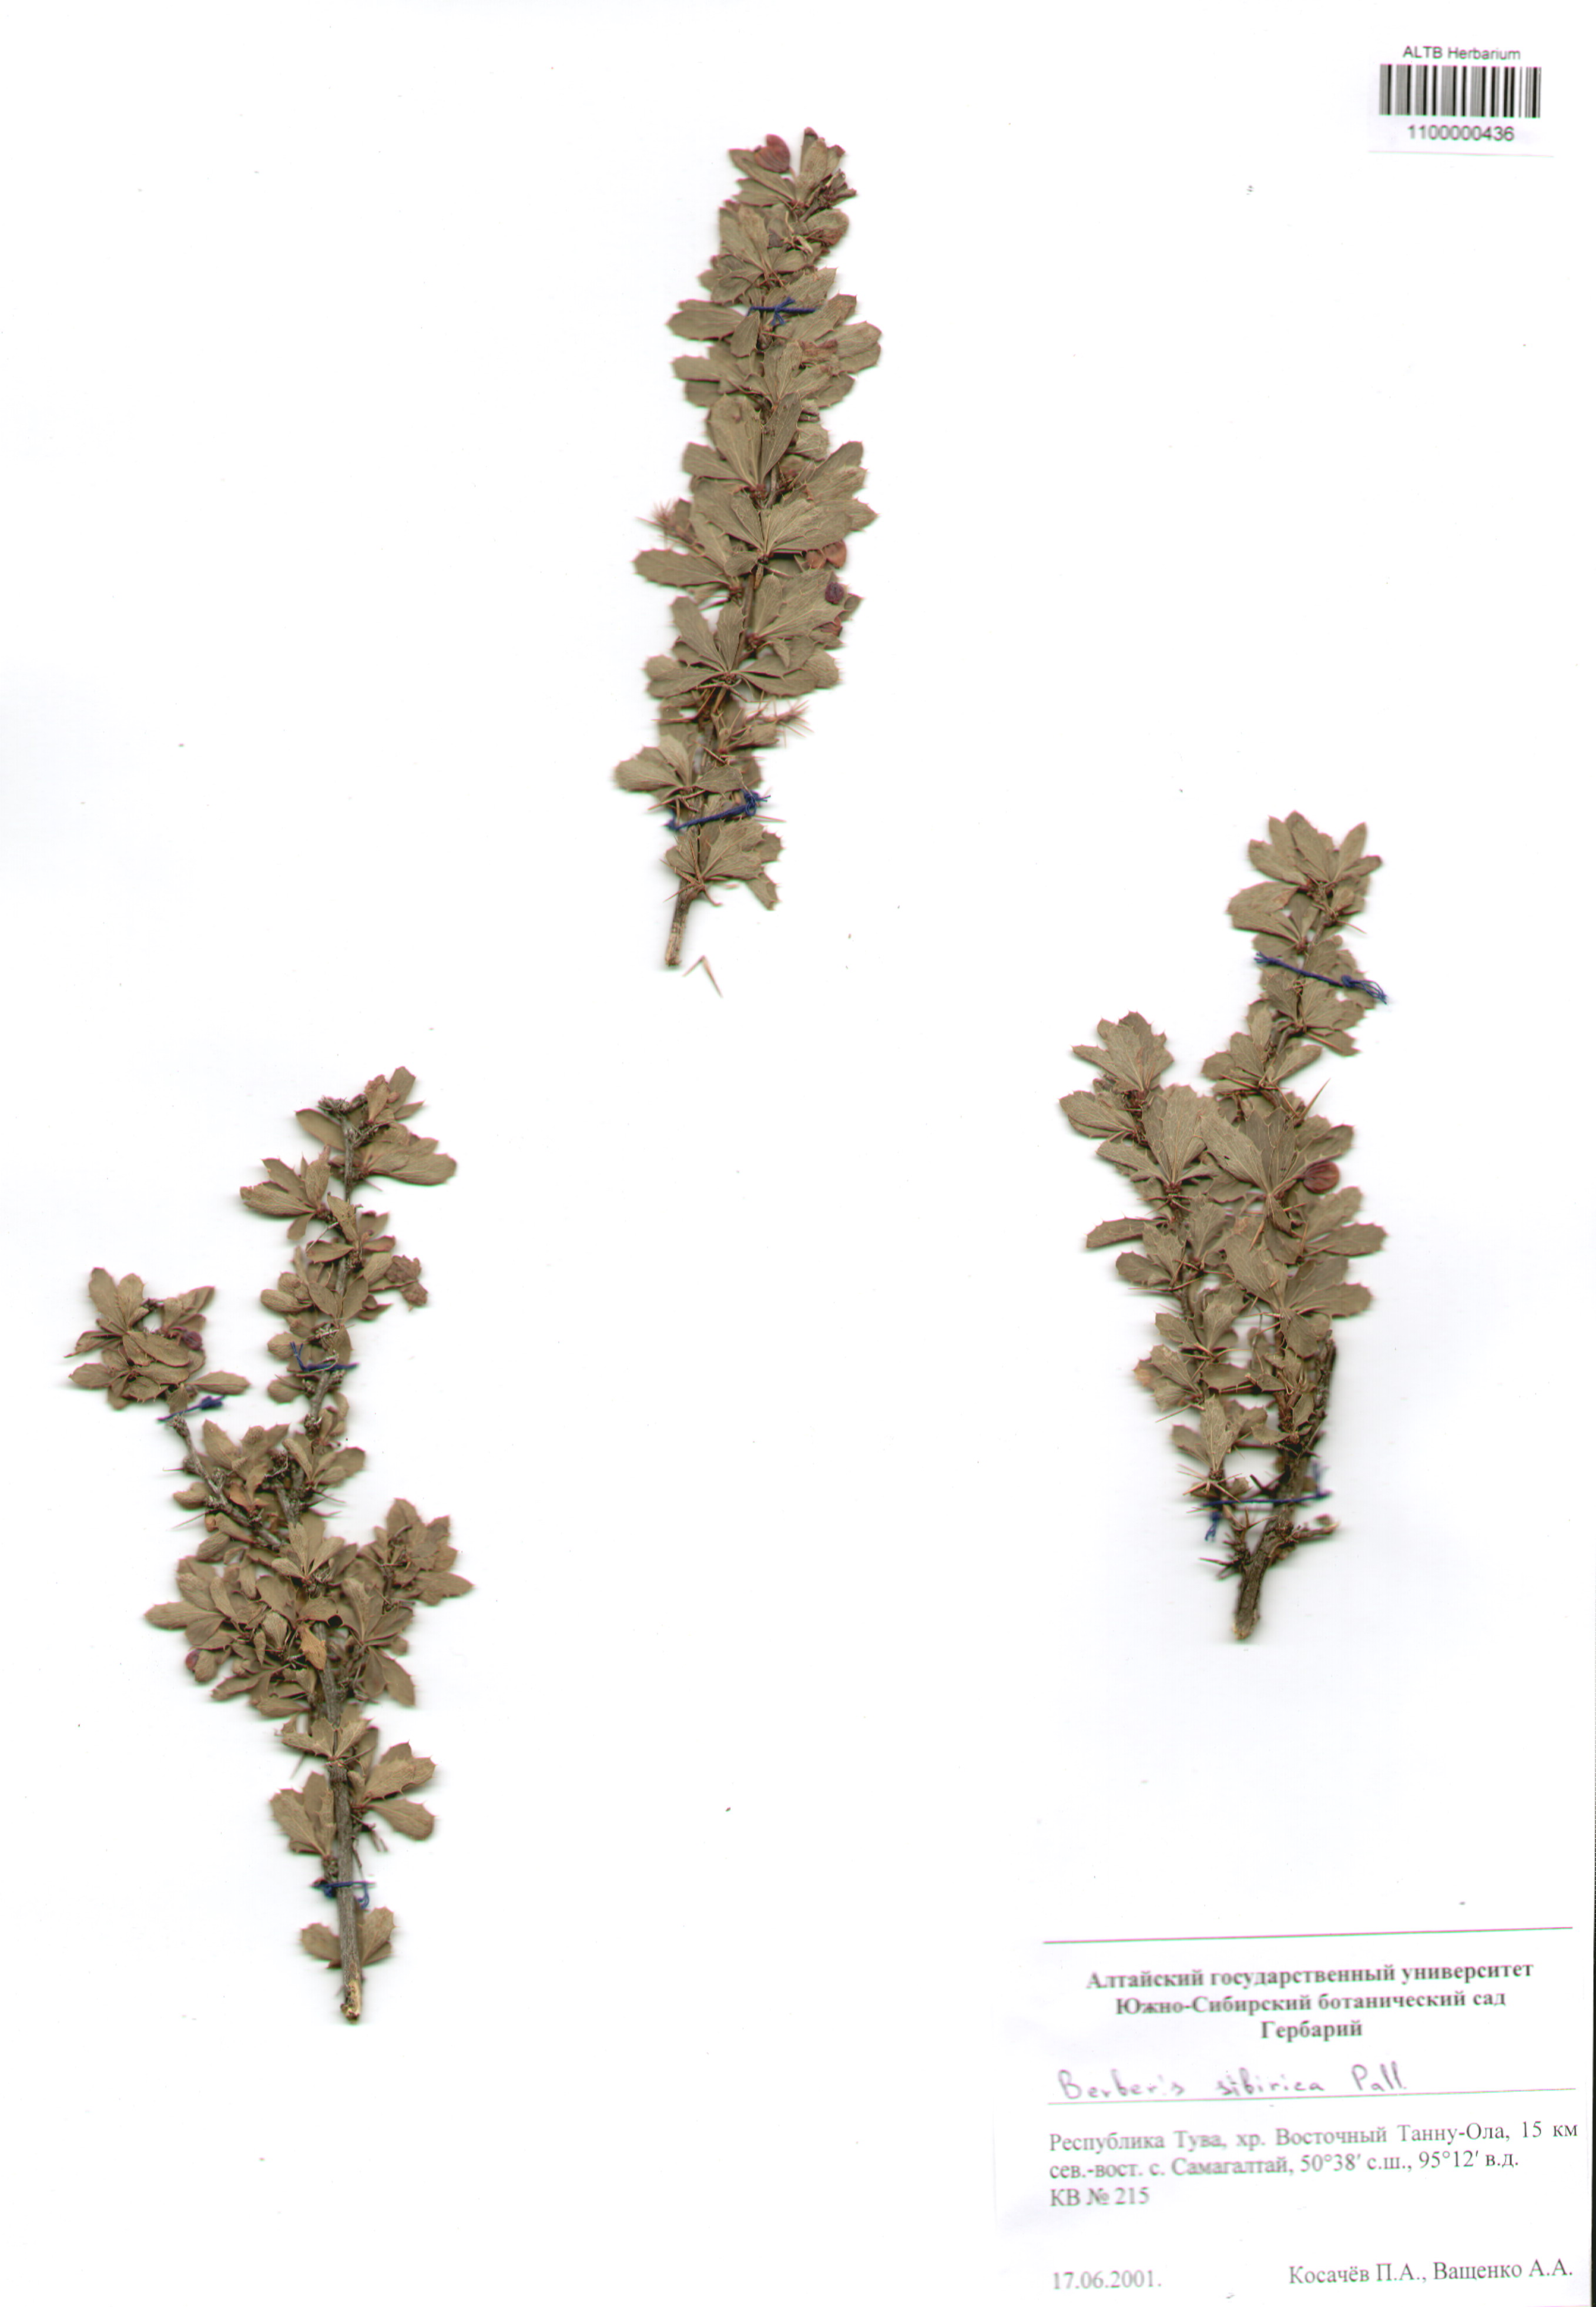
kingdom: Plantae
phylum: Tracheophyta
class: Magnoliopsida
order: Ranunculales
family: Berberidaceae
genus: Berberis
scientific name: Berberis sibirica
